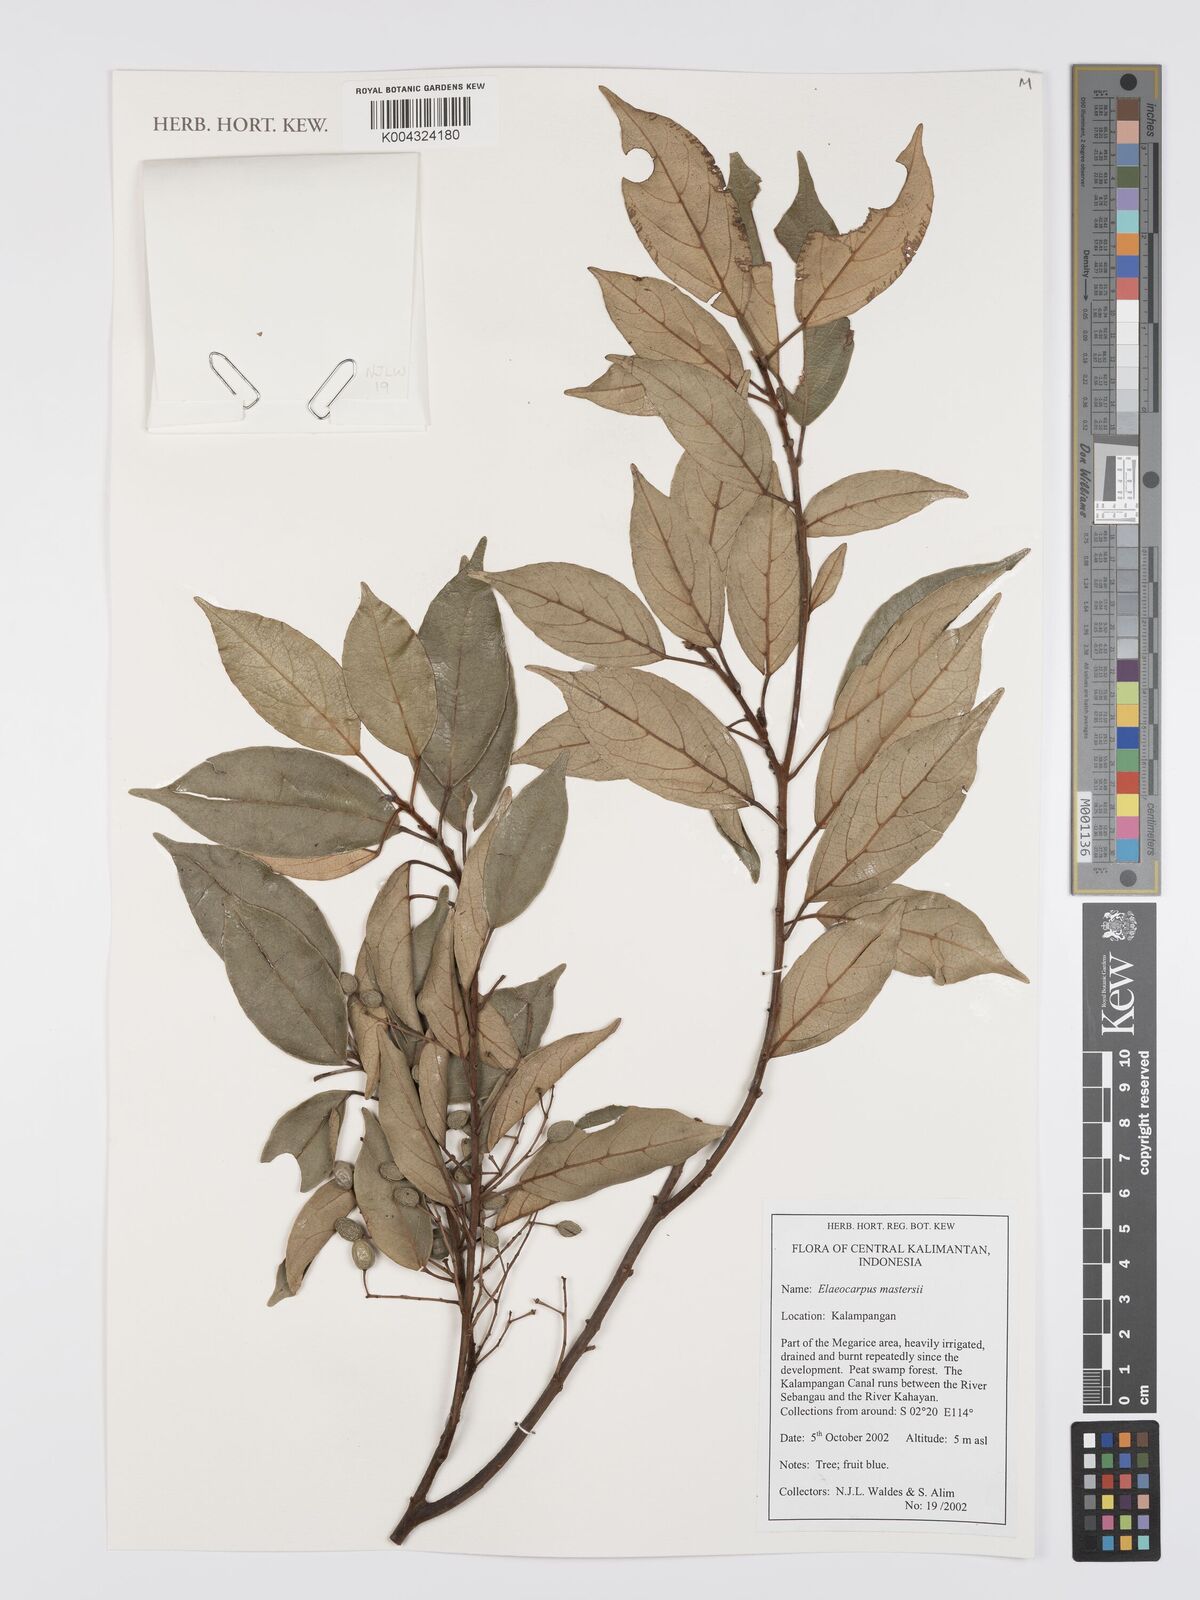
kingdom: Plantae
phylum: Tracheophyta
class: Magnoliopsida
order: Oxalidales
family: Elaeocarpaceae
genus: Elaeocarpus
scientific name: Elaeocarpus mastersii
